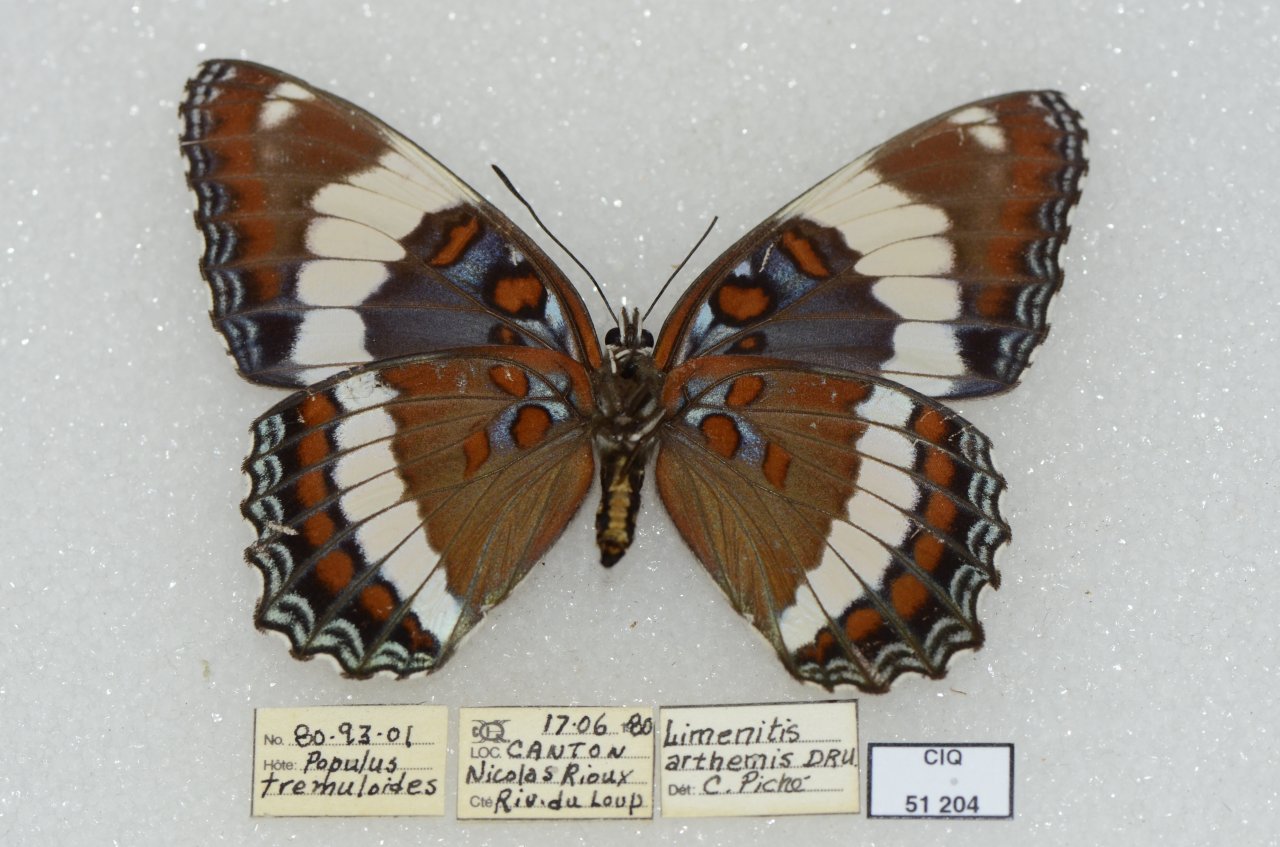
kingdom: Animalia
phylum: Arthropoda
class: Insecta
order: Lepidoptera
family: Nymphalidae
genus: Limenitis
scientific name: Limenitis arthemis
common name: Red-spotted Admiral
